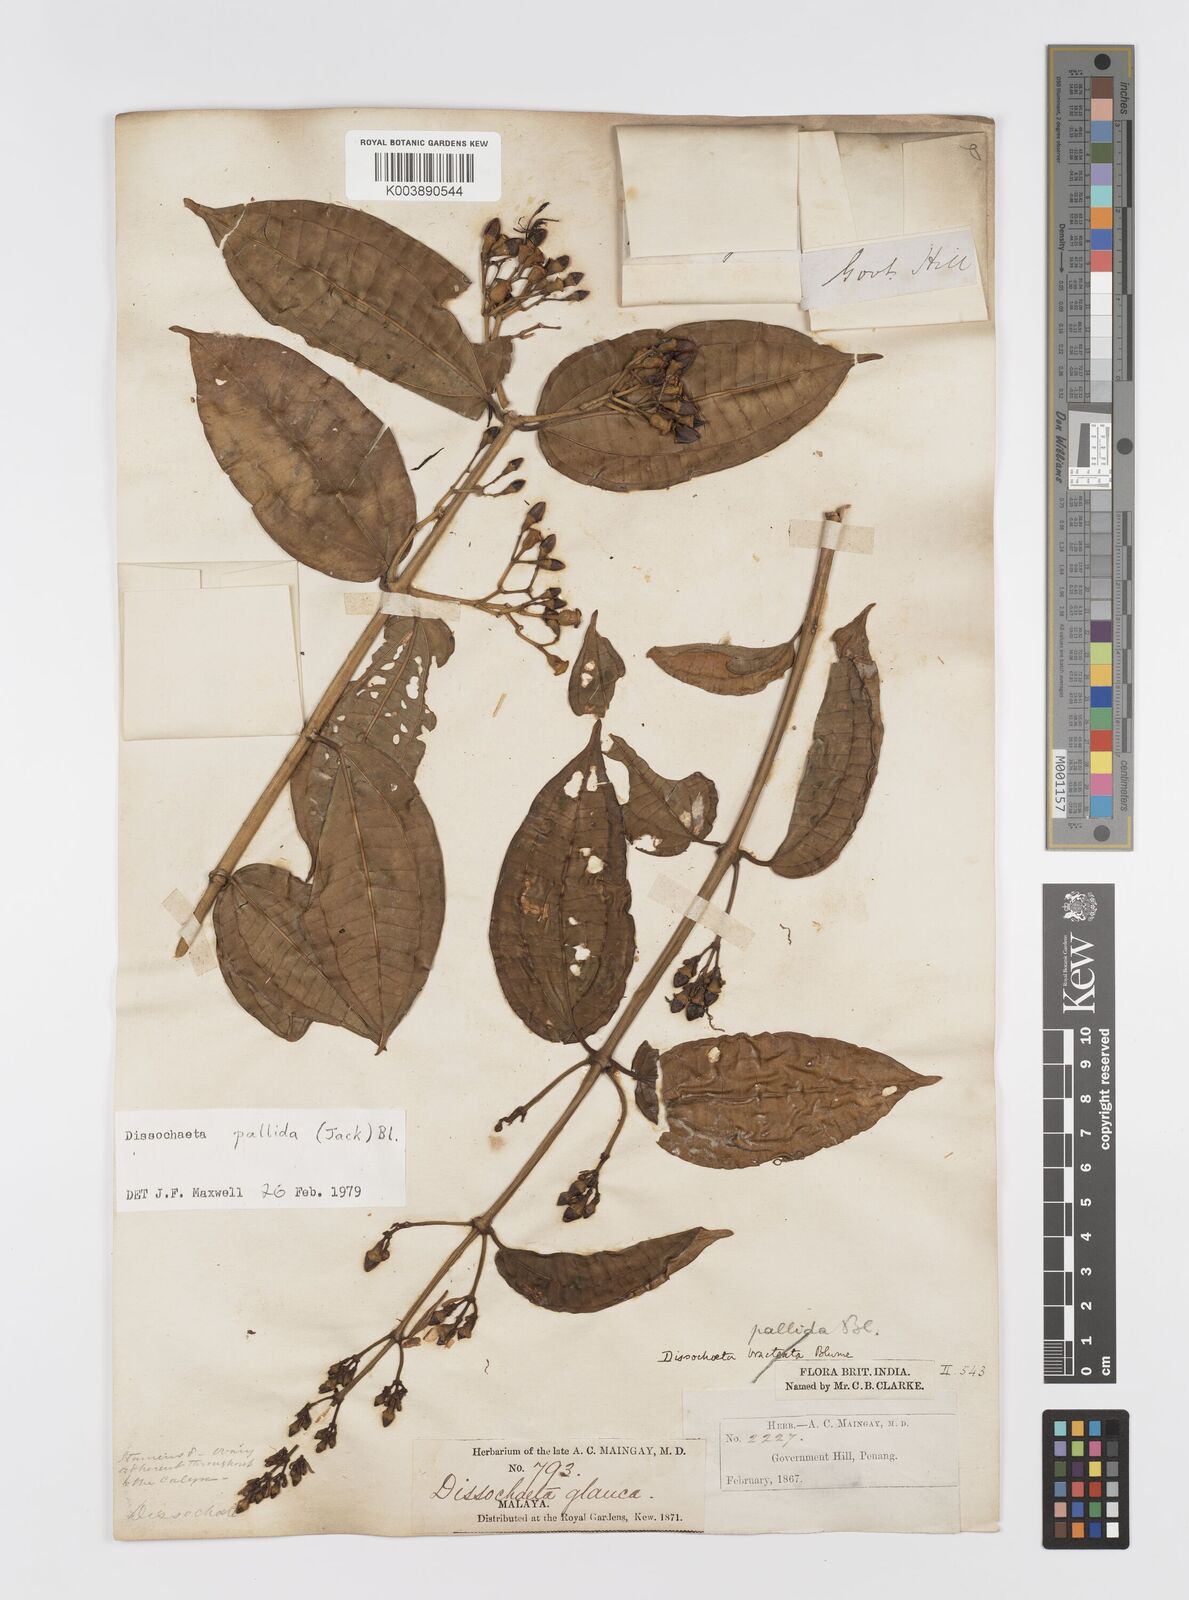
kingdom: Plantae
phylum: Tracheophyta
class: Magnoliopsida
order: Myrtales
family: Melastomataceae
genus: Dissochaeta
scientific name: Dissochaeta pallida
